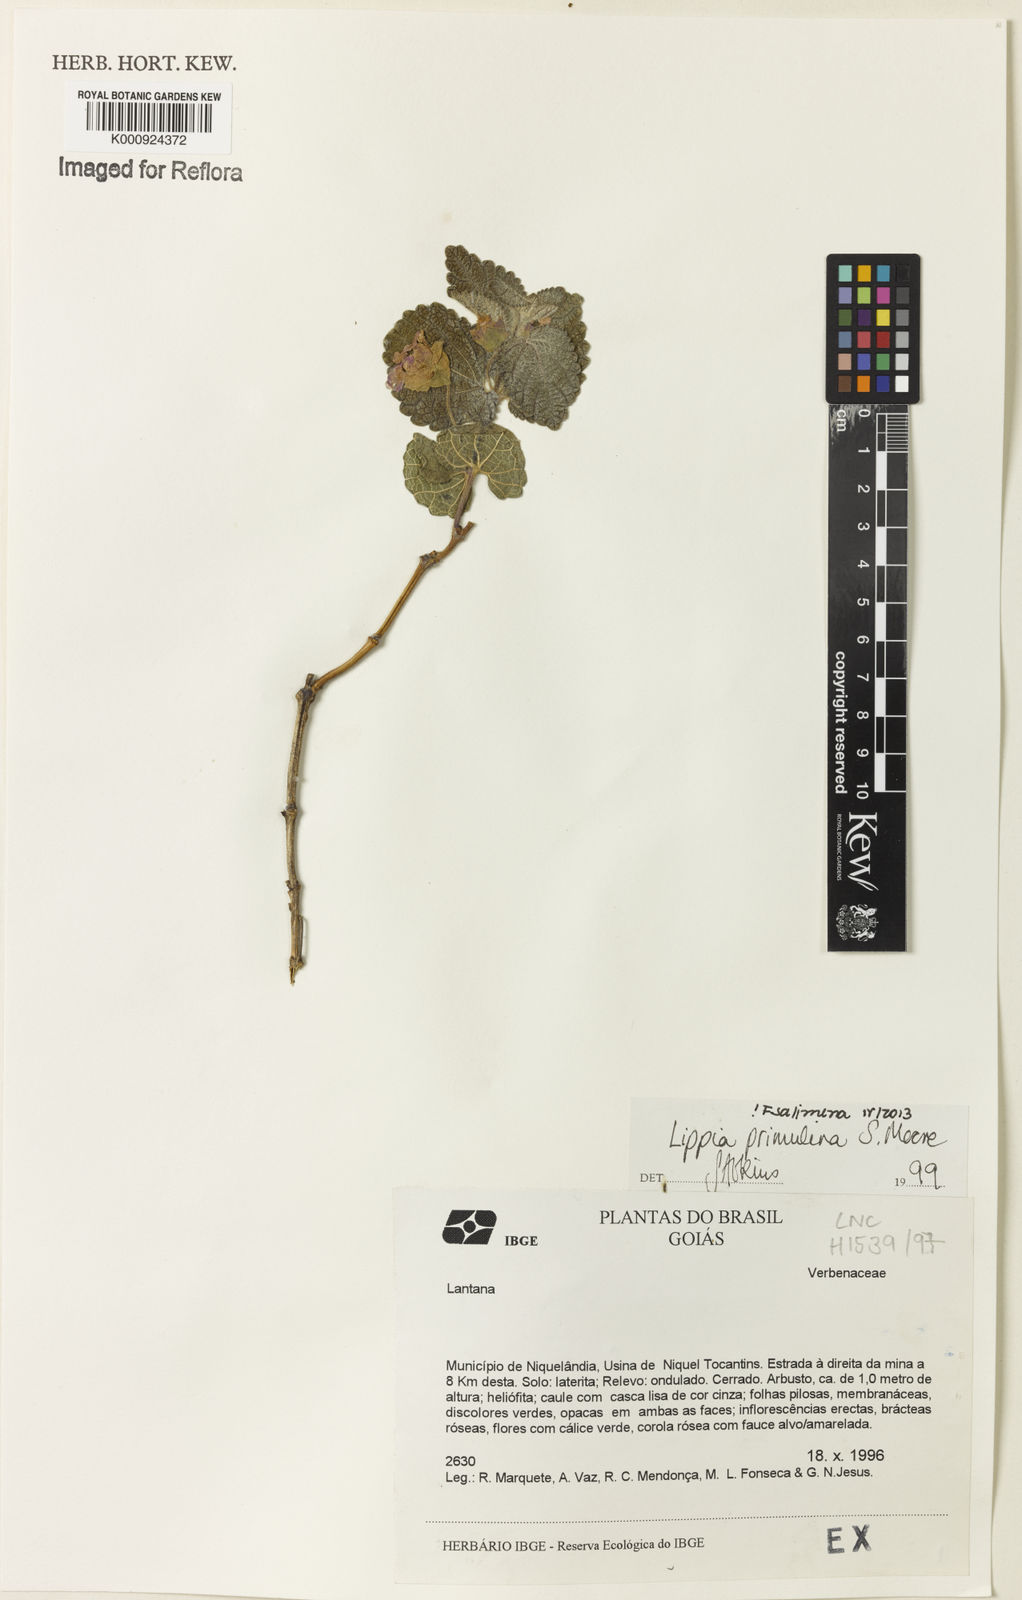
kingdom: Plantae
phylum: Tracheophyta
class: Magnoliopsida
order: Lamiales
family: Verbenaceae
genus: Lippia
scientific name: Lippia primulina
